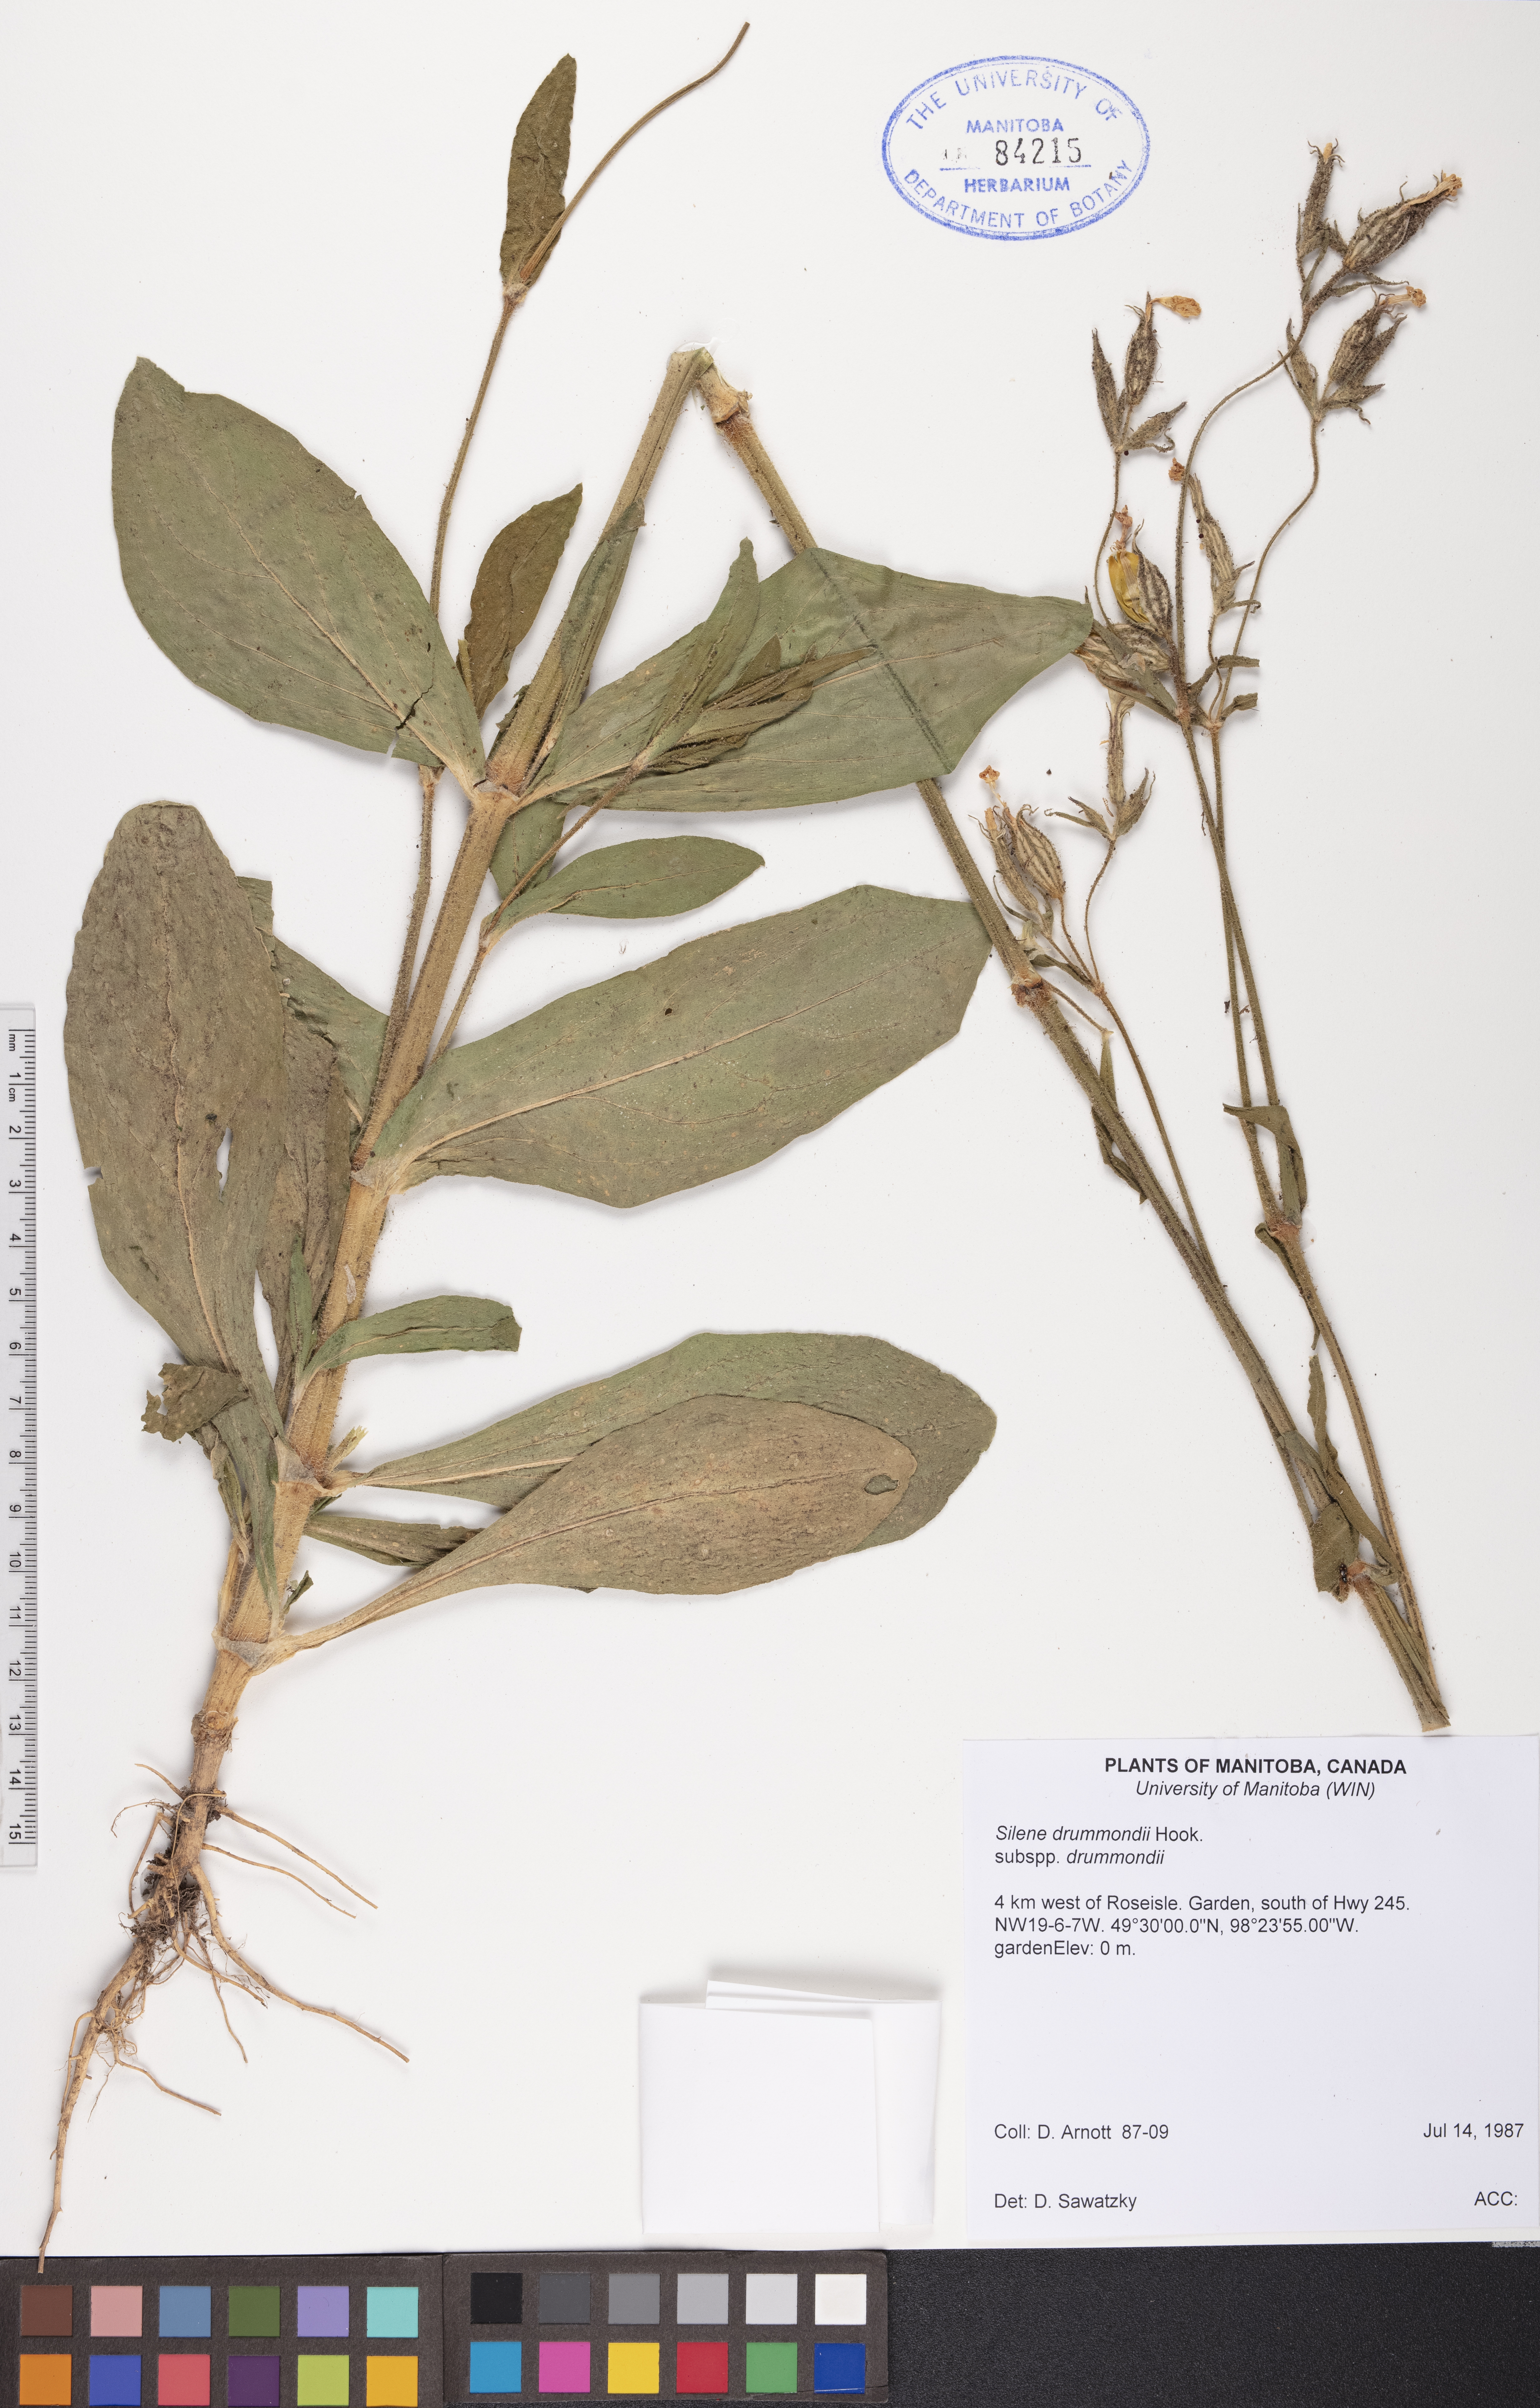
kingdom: Plantae
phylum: Tracheophyta
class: Magnoliopsida
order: Caryophyllales
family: Caryophyllaceae
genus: Silene
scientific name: Silene drummondii
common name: Drummond's catchfly
